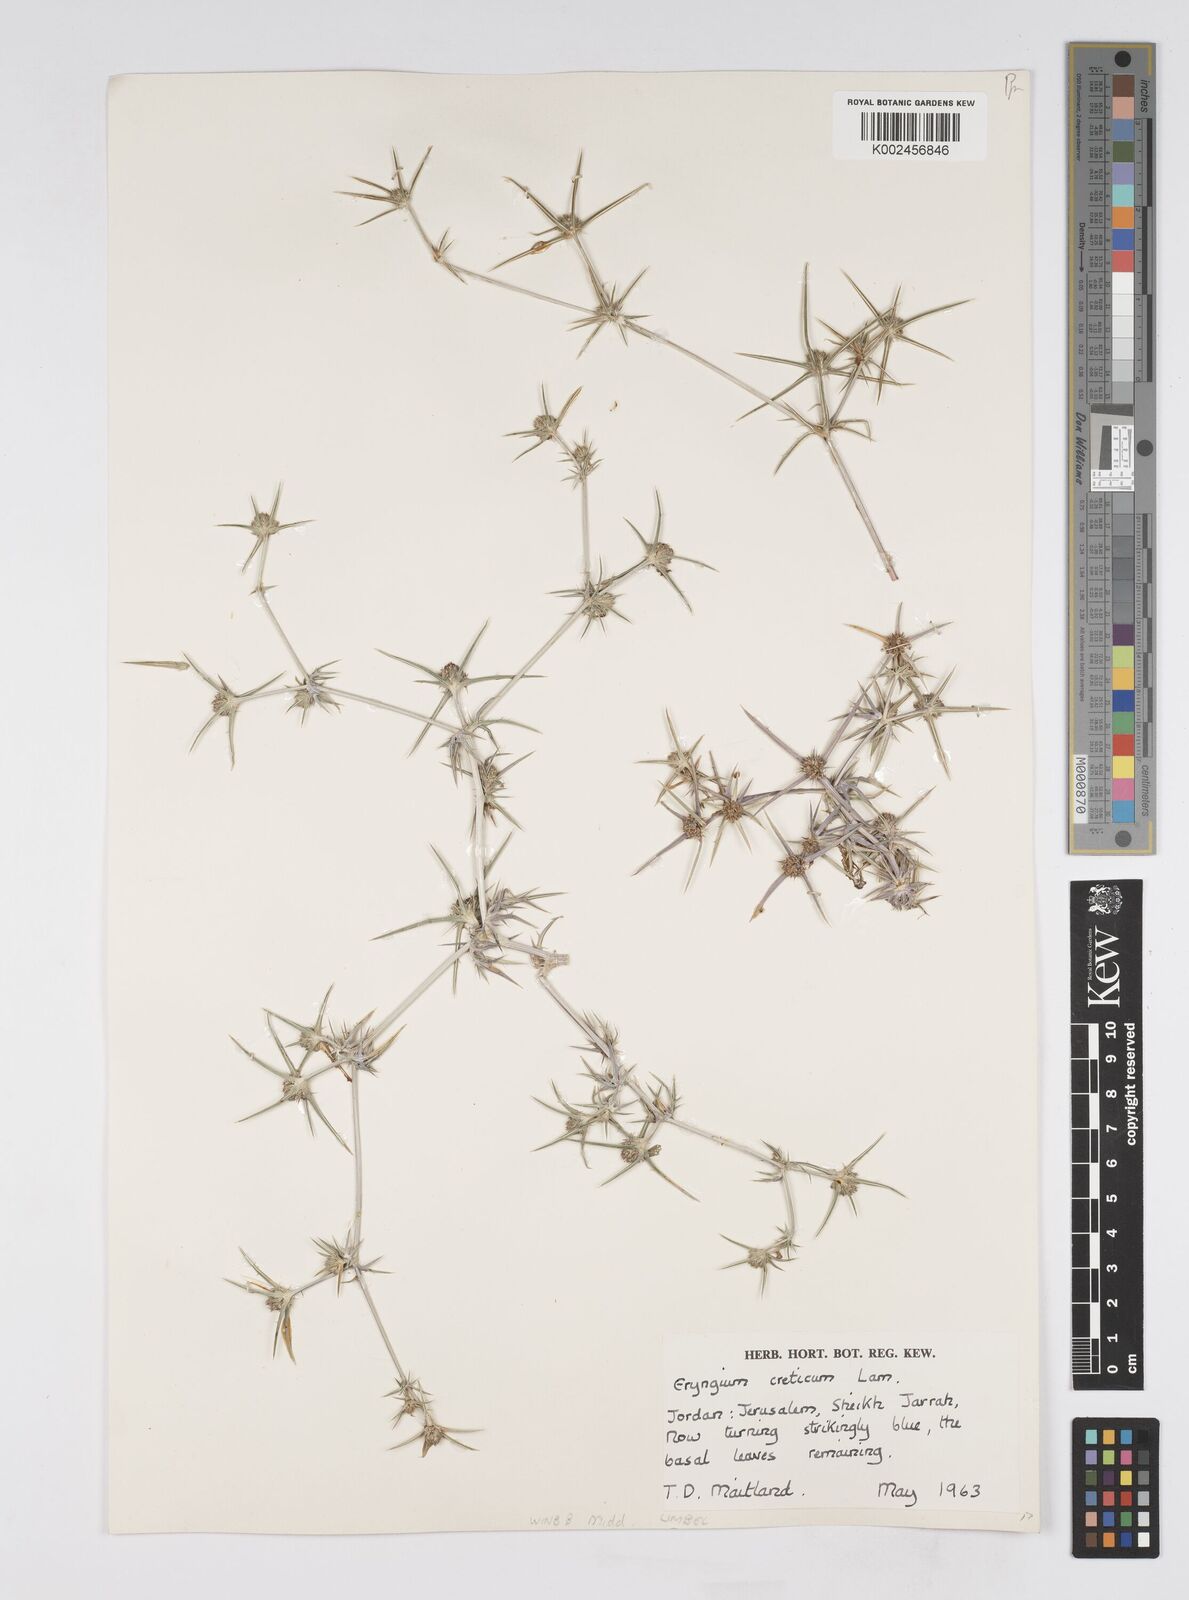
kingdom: Plantae
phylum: Tracheophyta
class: Magnoliopsida
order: Apiales
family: Apiaceae
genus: Eryngium
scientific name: Eryngium creticum
